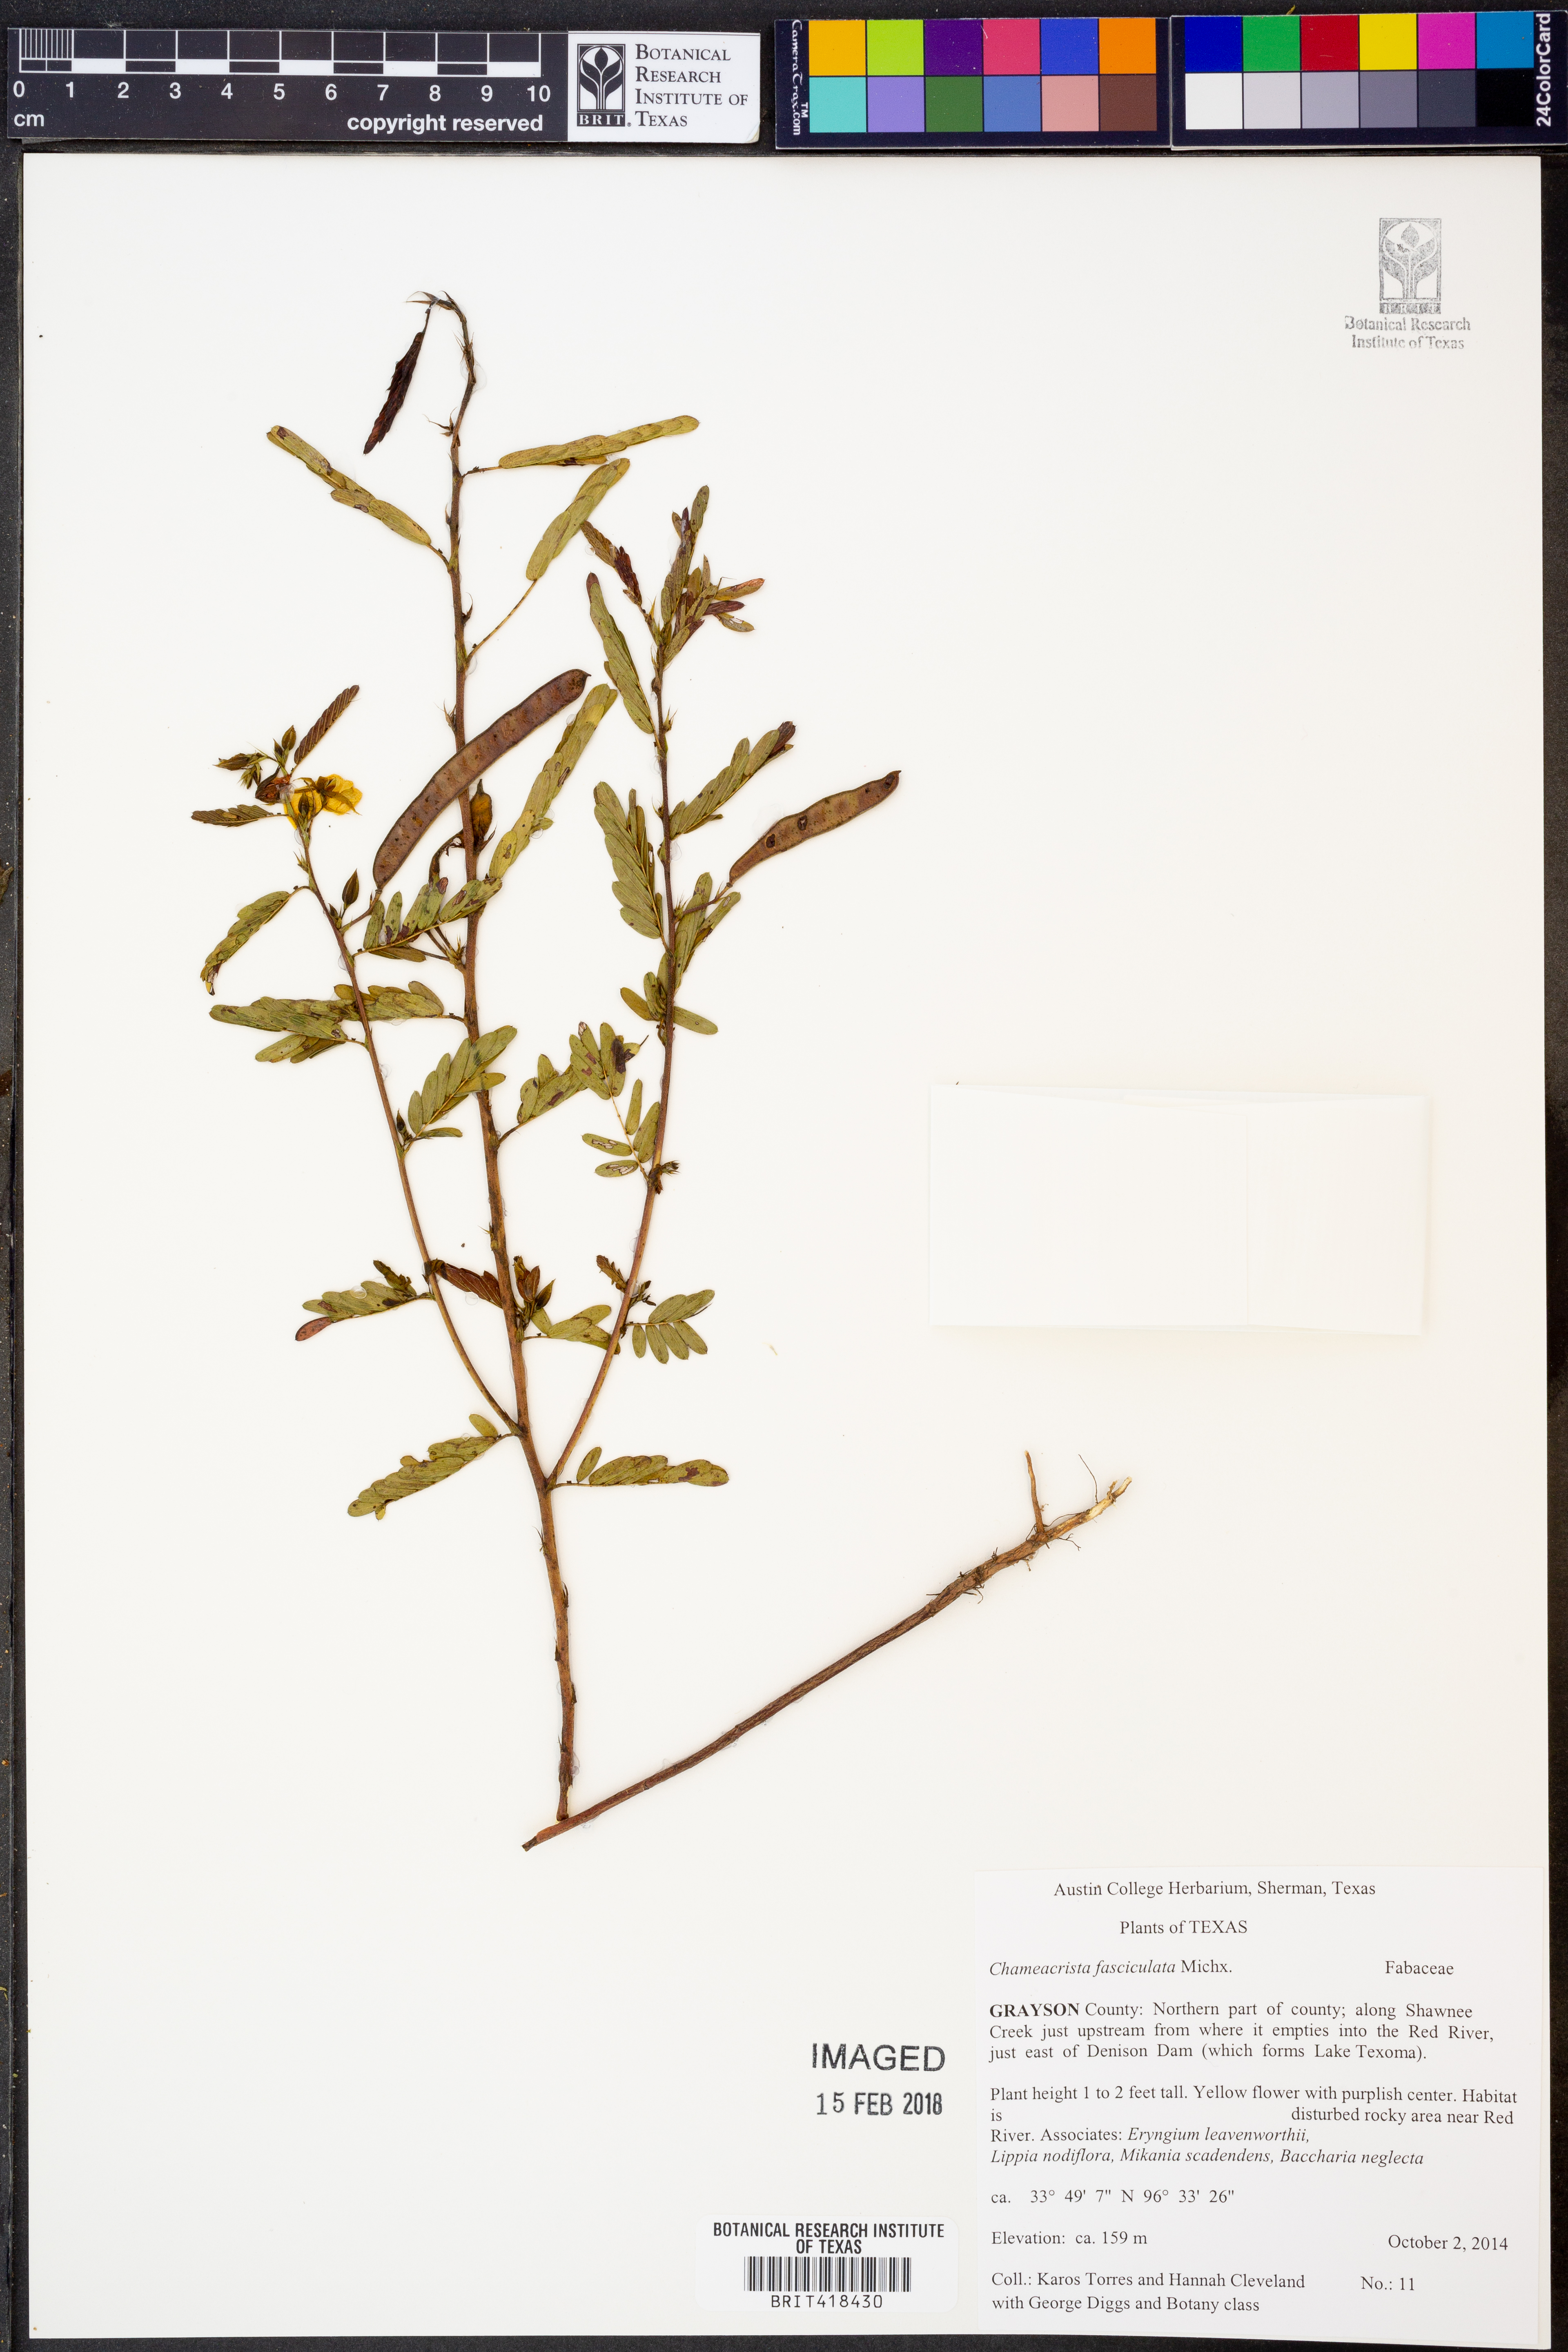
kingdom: Plantae
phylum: Tracheophyta
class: Magnoliopsida
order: Fabales
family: Fabaceae
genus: Chamaecrista
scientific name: Chamaecrista fasciculata
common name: Golden cassia
